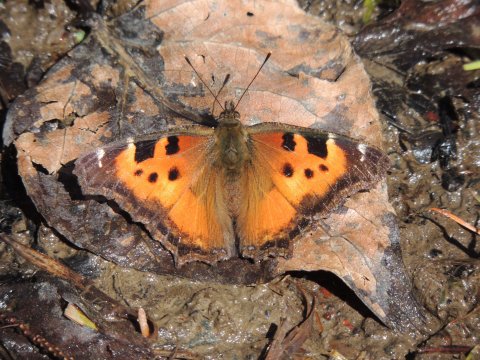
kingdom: Animalia
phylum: Arthropoda
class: Insecta
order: Lepidoptera
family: Nymphalidae
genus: Nymphalis
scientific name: Nymphalis californica
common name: California Tortoiseshell
